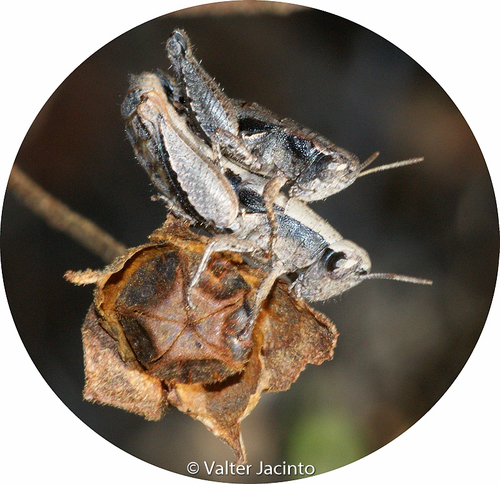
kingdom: Animalia
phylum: Arthropoda
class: Insecta
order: Orthoptera
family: Acrididae
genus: Pezotettix
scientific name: Pezotettix giornae
